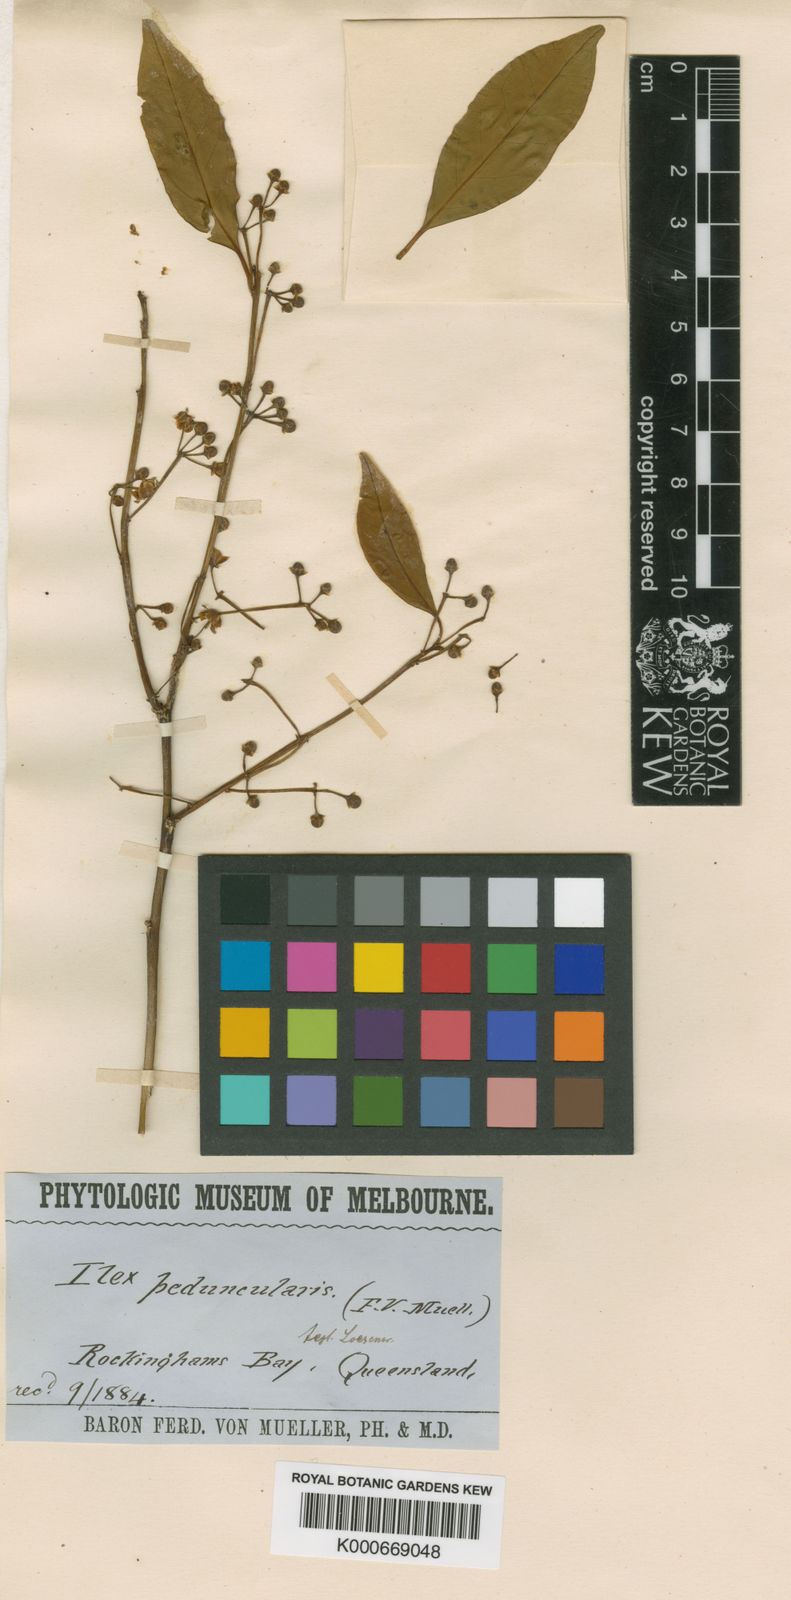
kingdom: Plantae
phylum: Tracheophyta
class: Magnoliopsida
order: Aquifoliales
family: Aquifoliaceae
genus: Ilex
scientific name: Ilex arnhemensis
